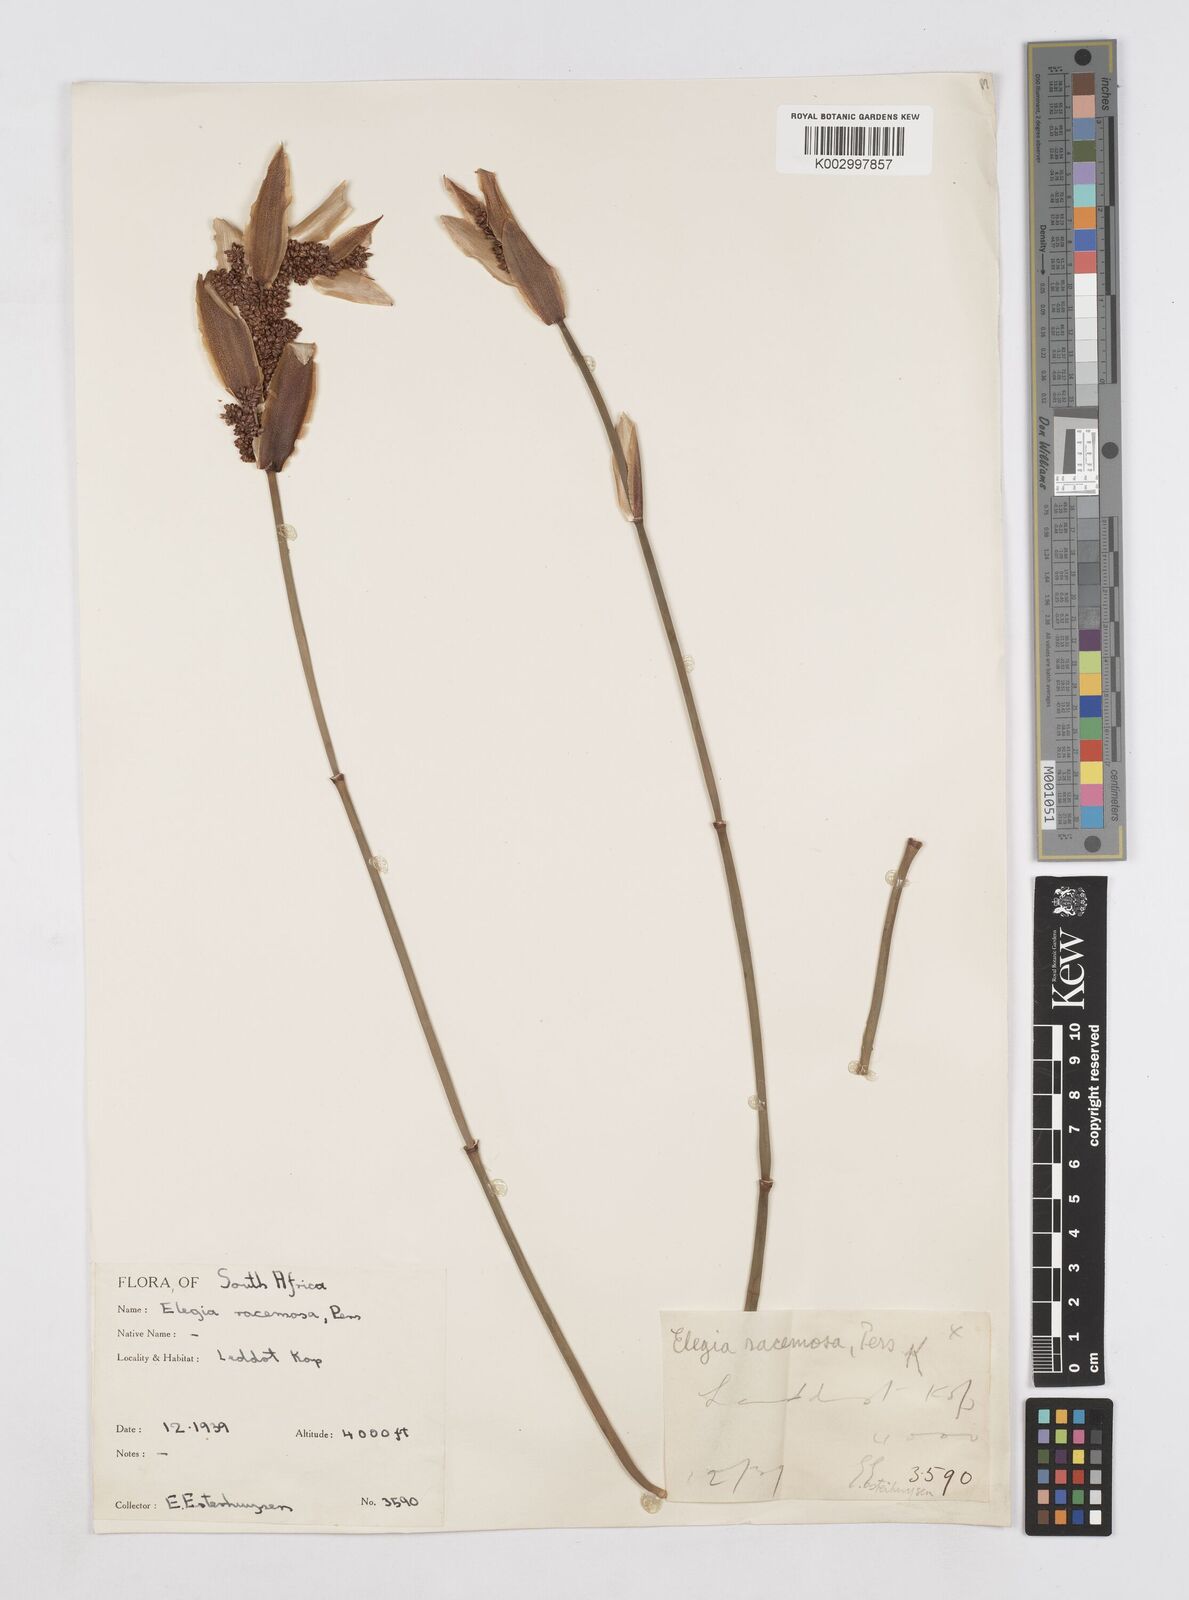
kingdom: Plantae
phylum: Tracheophyta
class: Liliopsida
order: Poales
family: Restionaceae
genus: Elegia
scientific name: Elegia racemosa
